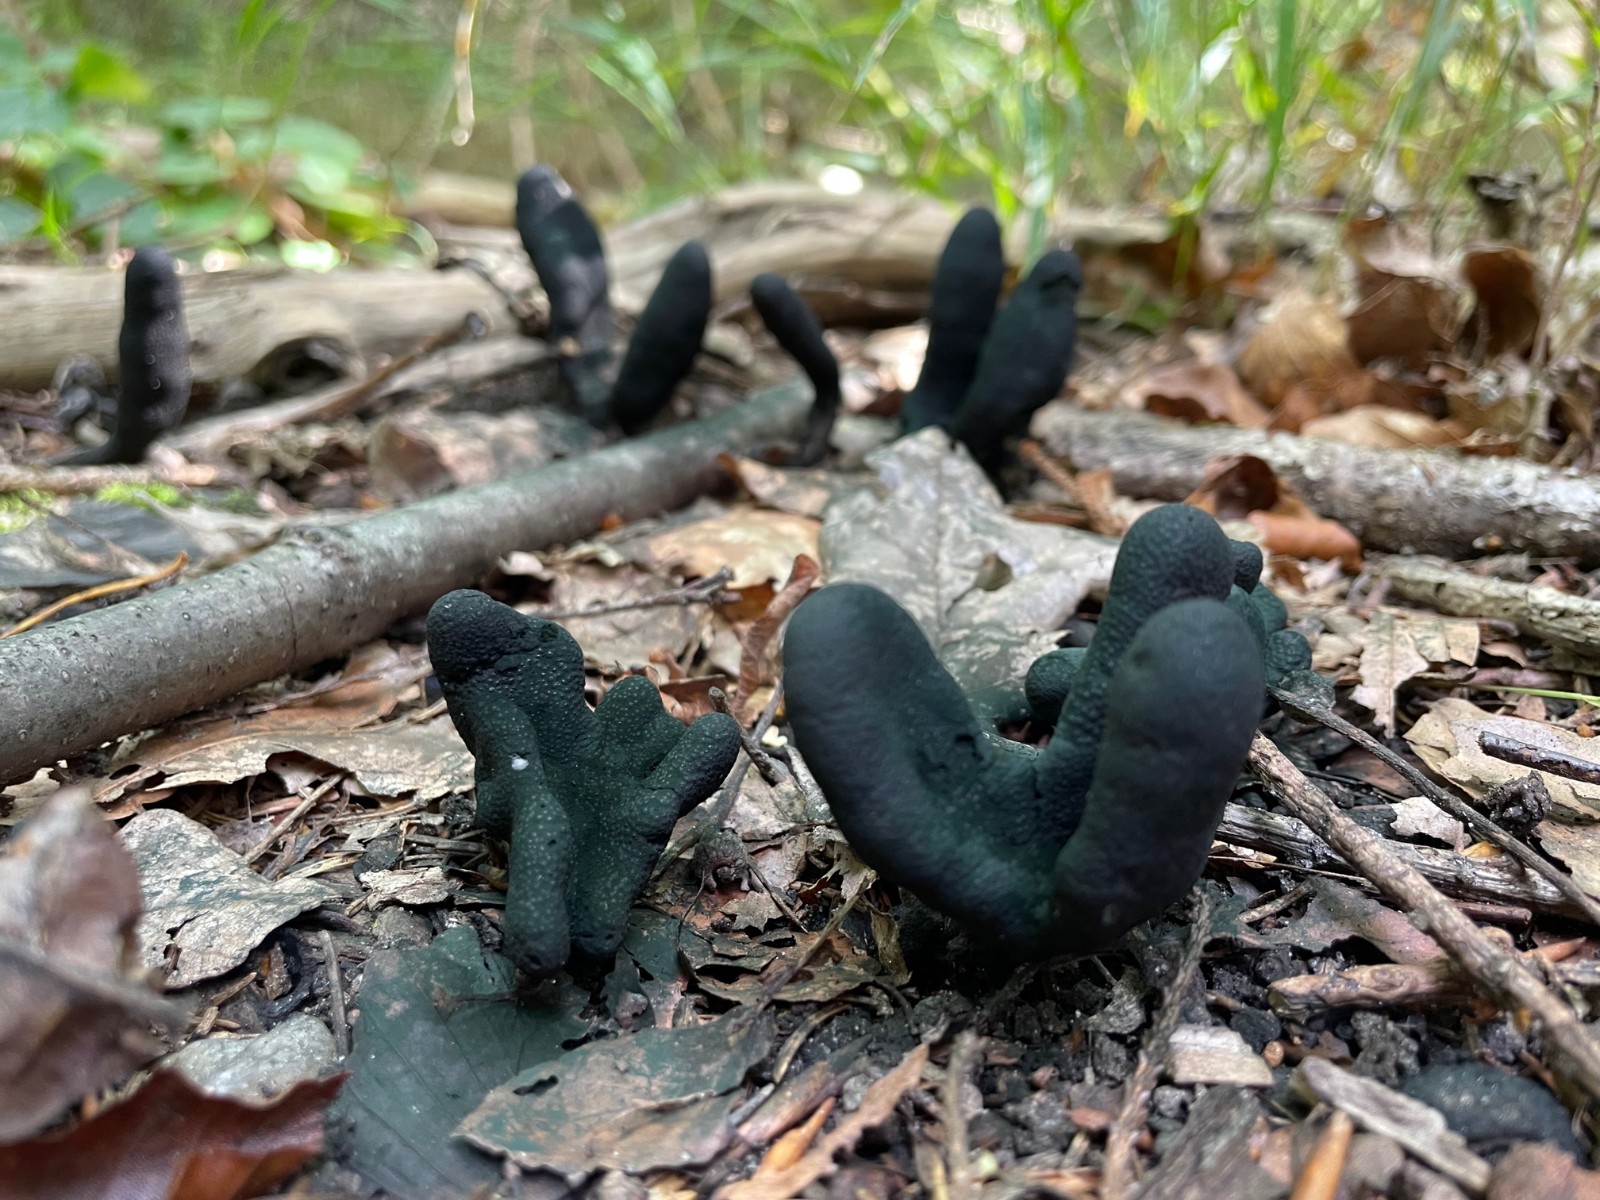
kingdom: Fungi
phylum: Ascomycota
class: Sordariomycetes
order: Xylariales
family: Xylariaceae
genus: Xylaria
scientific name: Xylaria longipes
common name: slank stødsvamp
